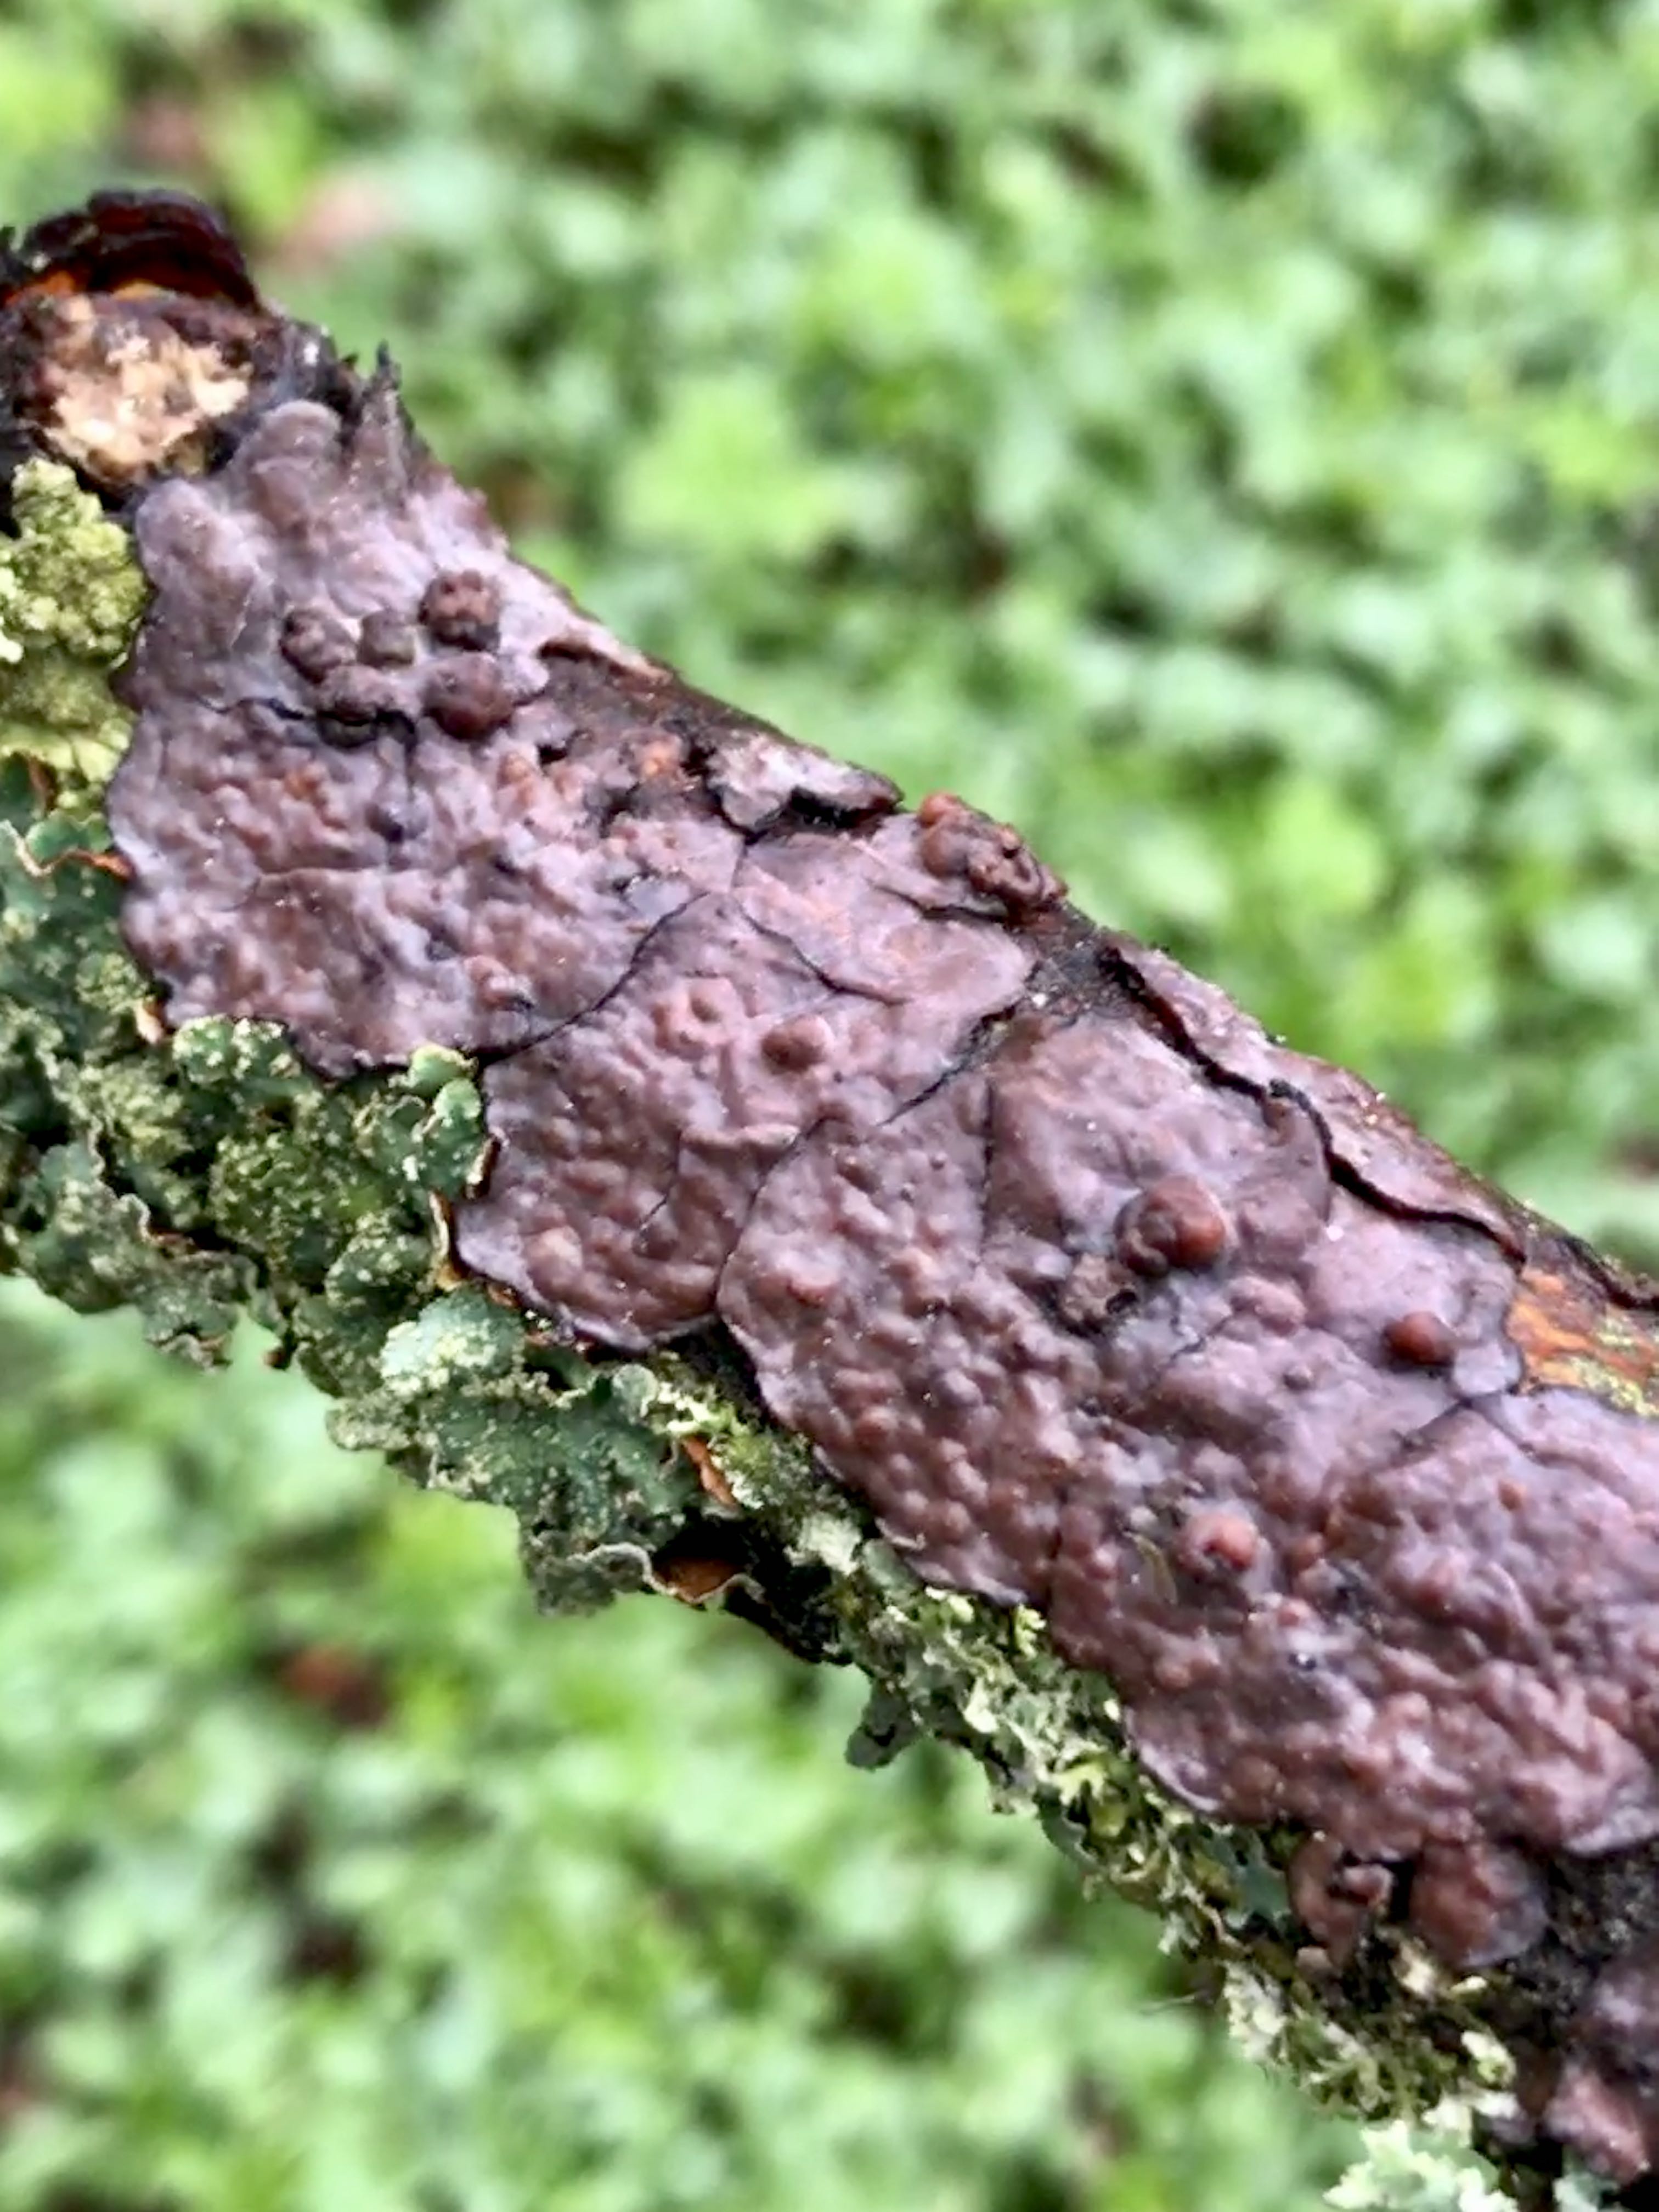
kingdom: Fungi
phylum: Basidiomycota
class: Agaricomycetes
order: Russulales
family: Peniophoraceae
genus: Peniophora
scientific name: Peniophora quercina
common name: ege-voksskind
